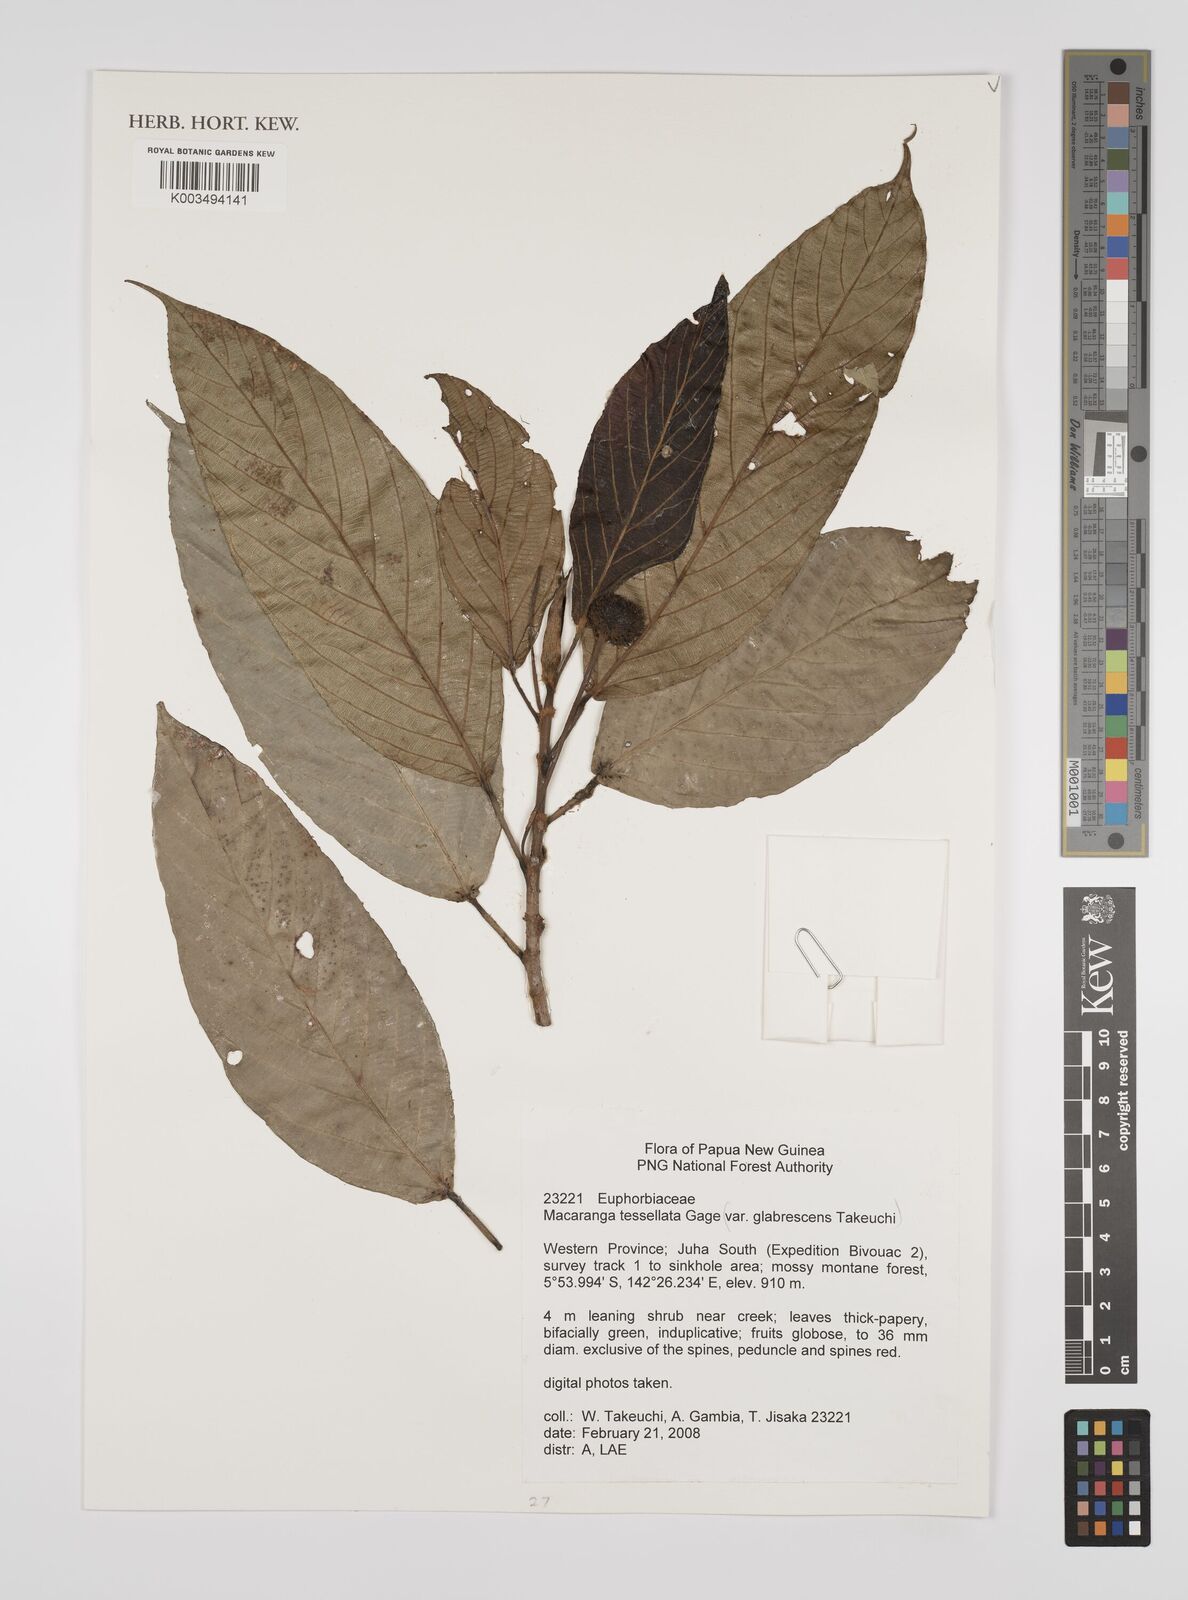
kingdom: Plantae
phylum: Tracheophyta
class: Magnoliopsida
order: Malpighiales
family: Euphorbiaceae
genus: Macaranga
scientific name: Macaranga aleuritoides
